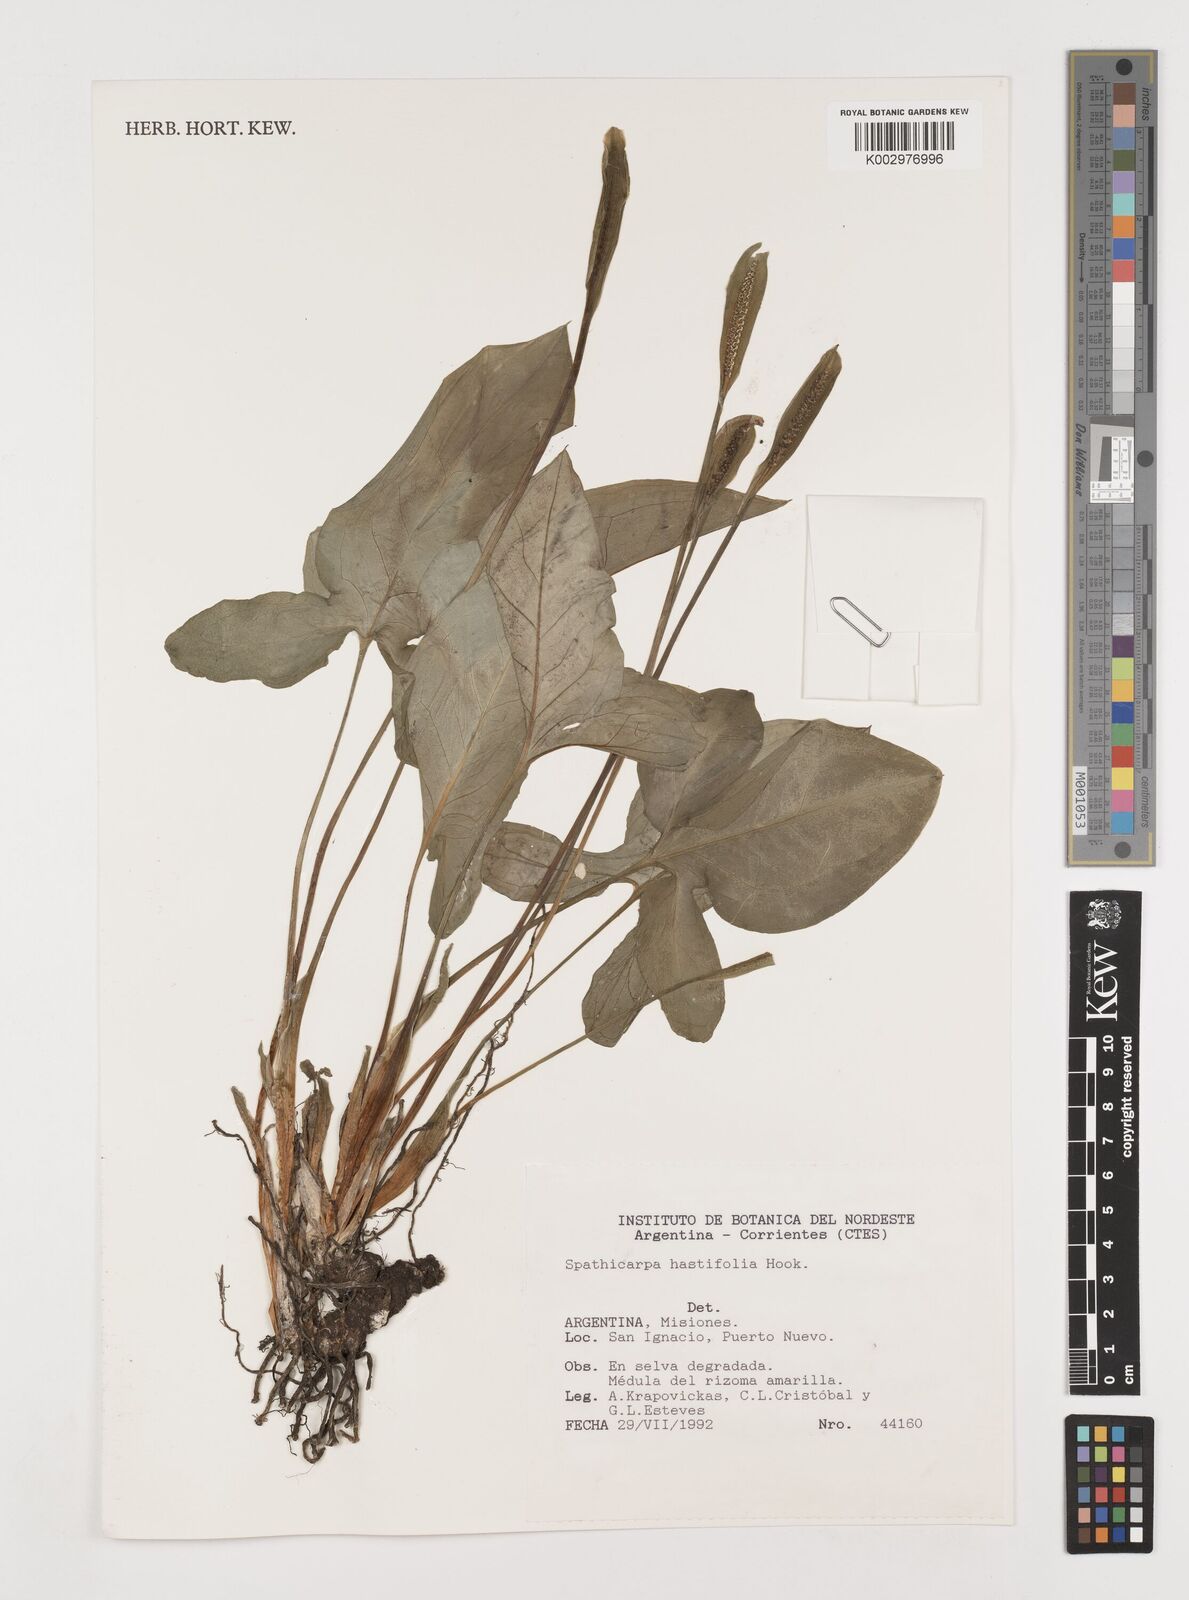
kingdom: Plantae
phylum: Tracheophyta
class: Liliopsida
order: Alismatales
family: Araceae
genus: Spathicarpa
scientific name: Spathicarpa hastifolia
